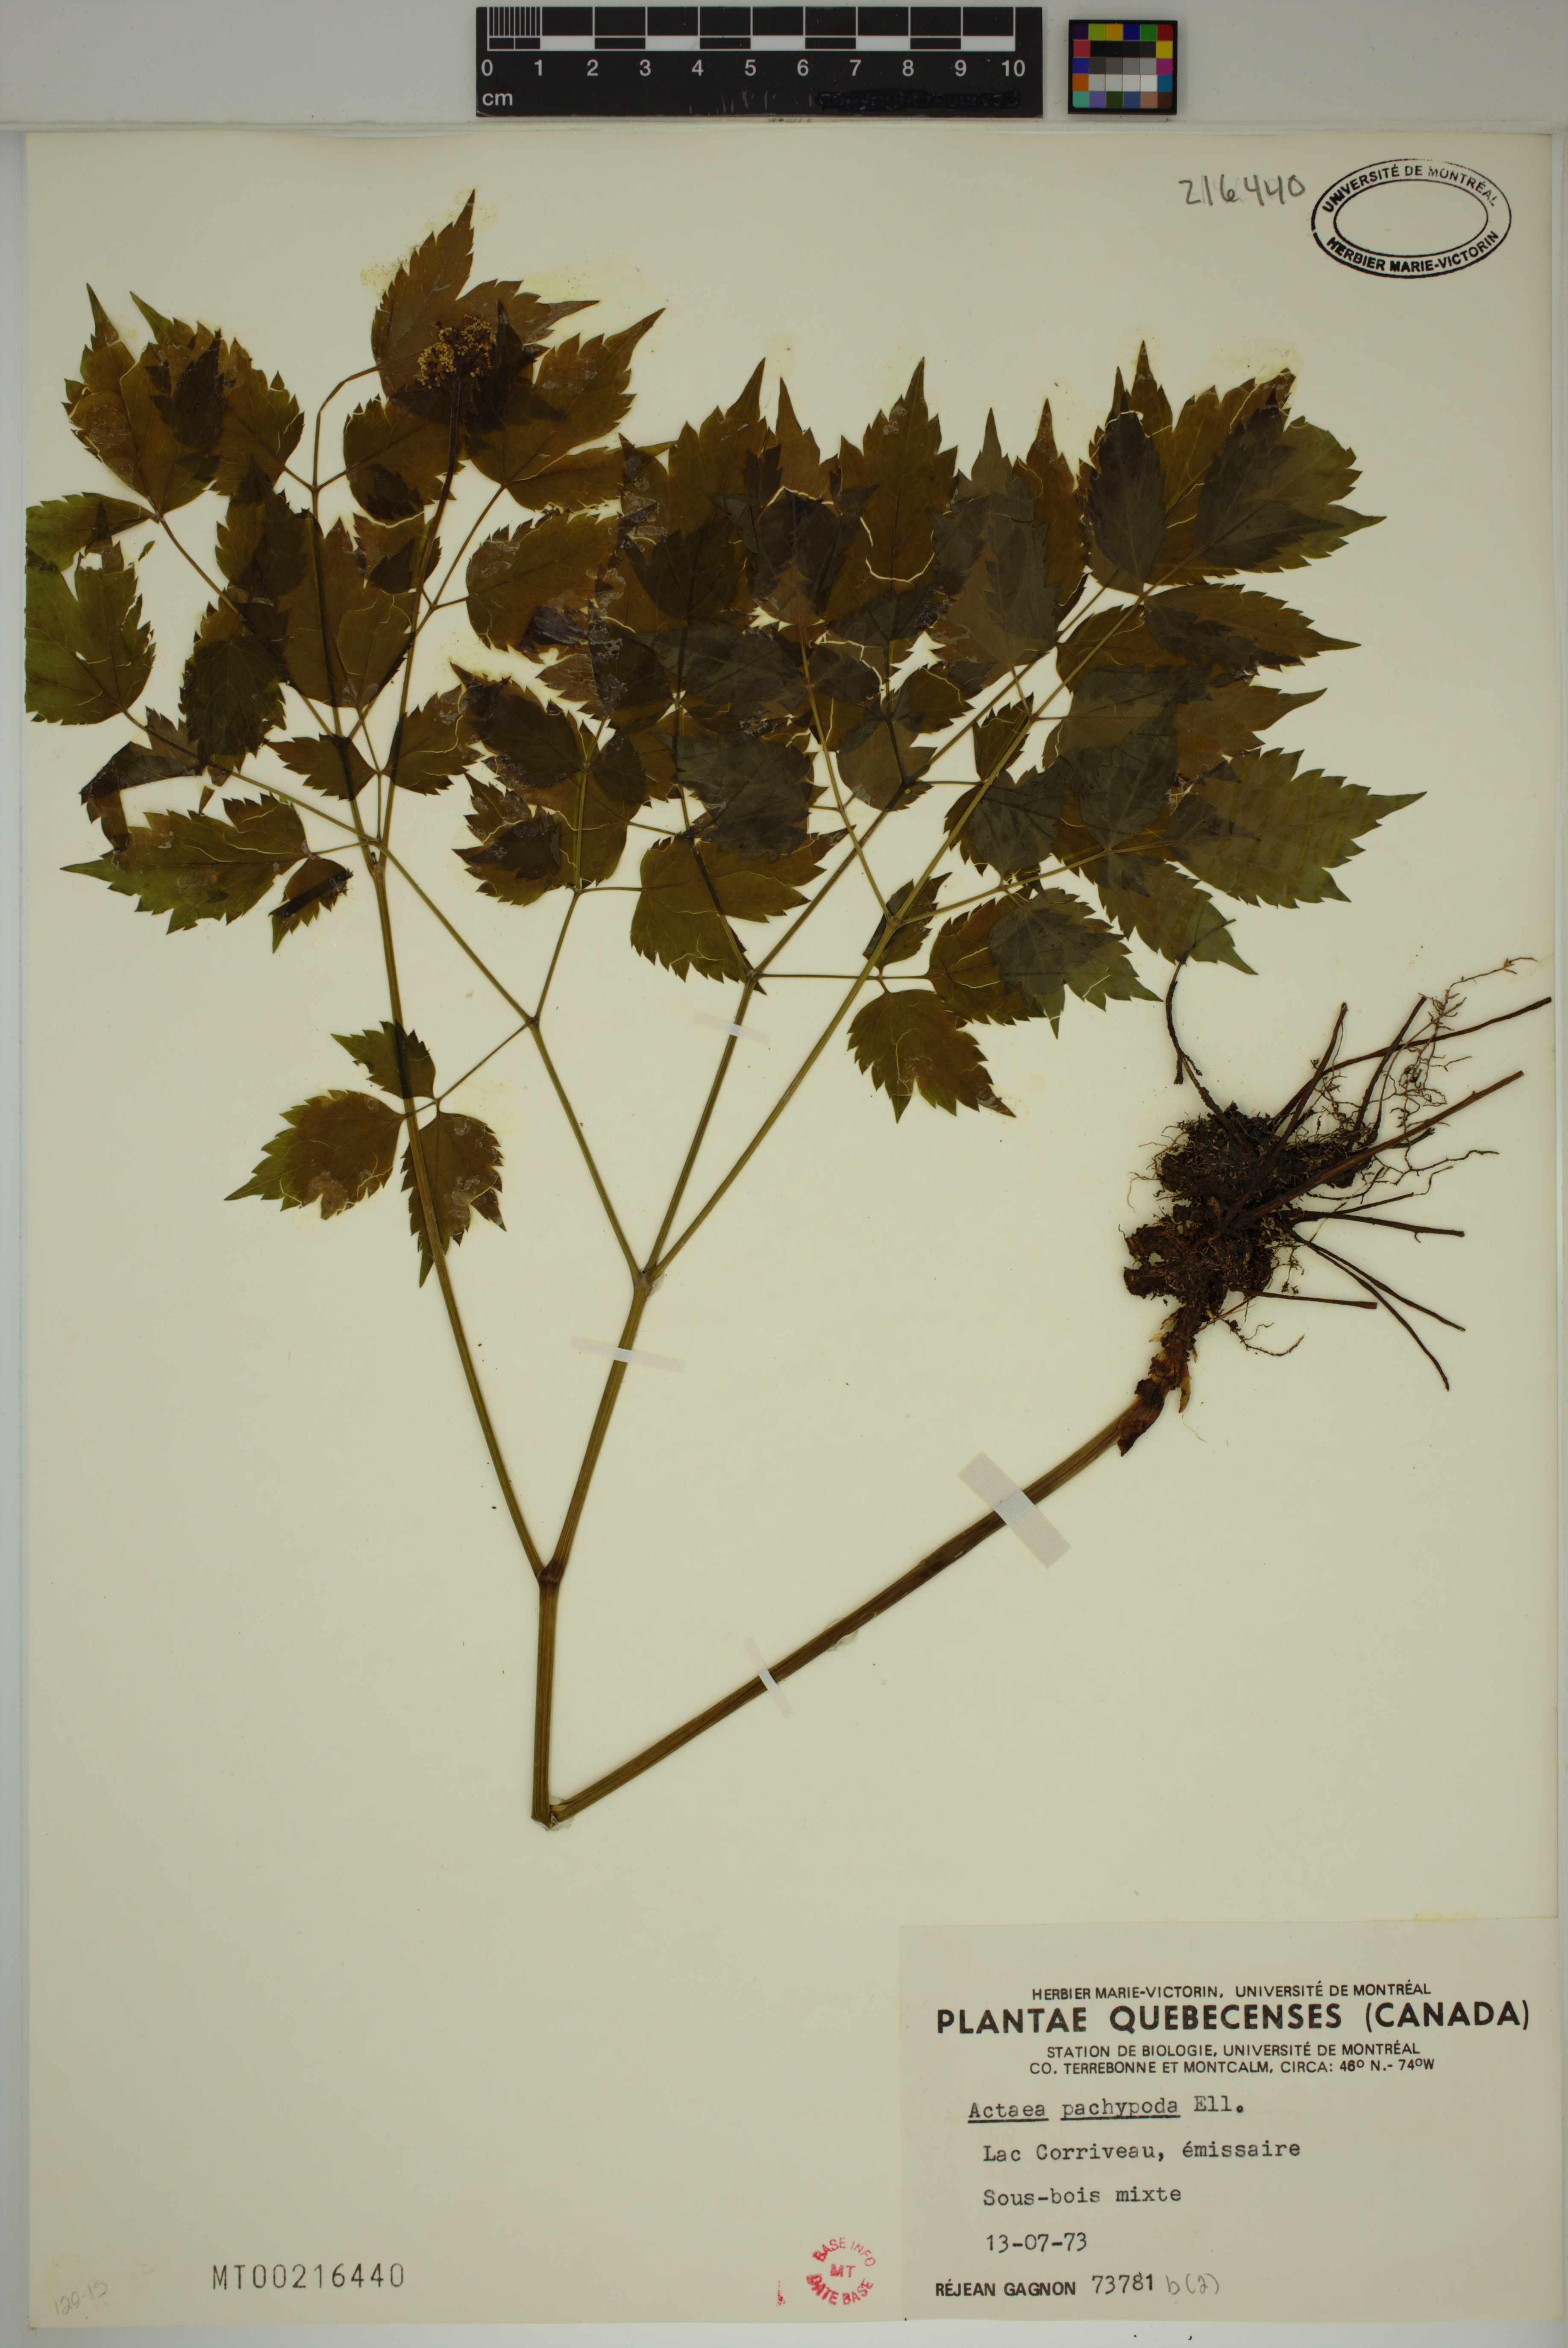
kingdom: Plantae
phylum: Tracheophyta
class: Magnoliopsida
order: Ranunculales
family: Ranunculaceae
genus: Actaea
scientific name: Actaea pachypoda
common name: Doll's-eyes
